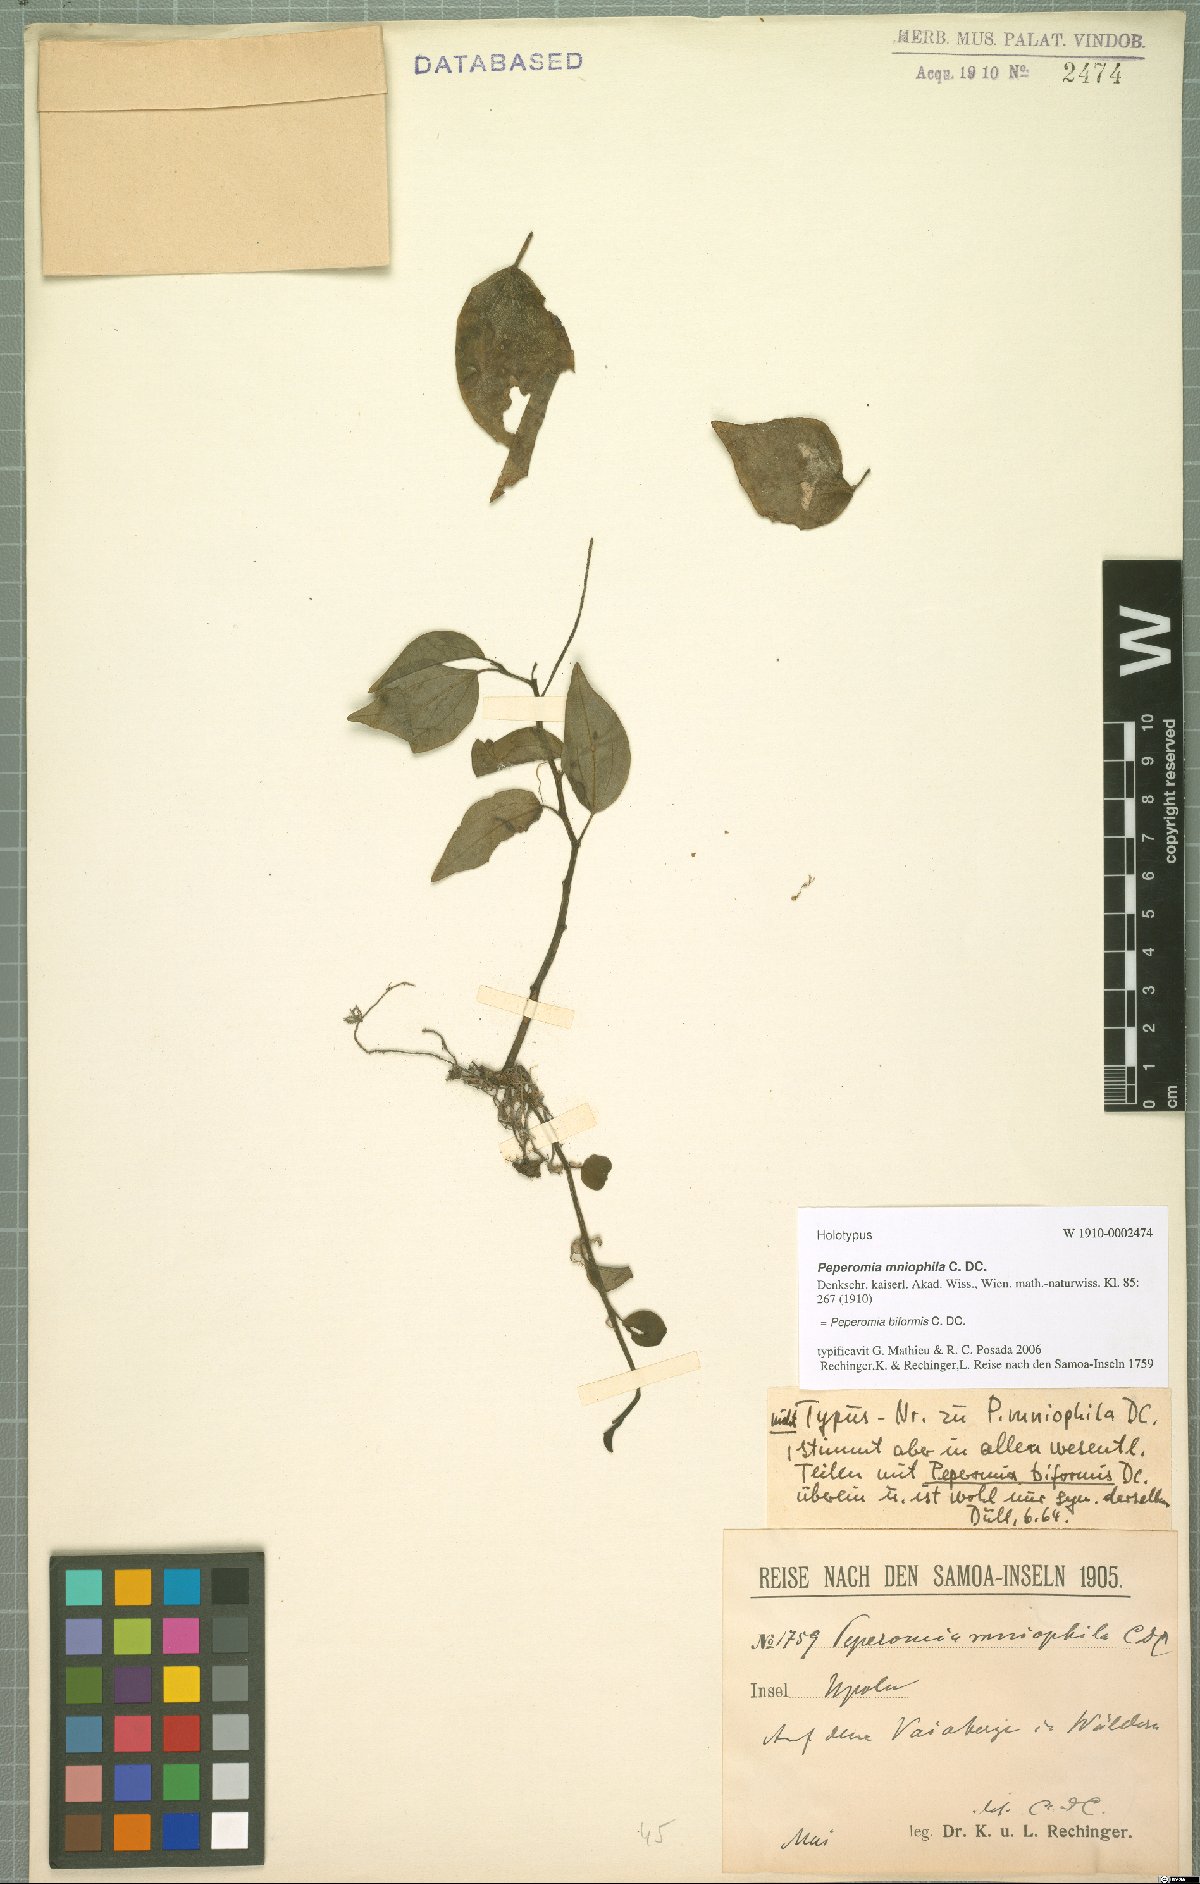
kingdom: Plantae
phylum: Tracheophyta
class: Magnoliopsida
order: Piperales
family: Piperaceae
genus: Peperomia
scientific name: Peperomia biformis
